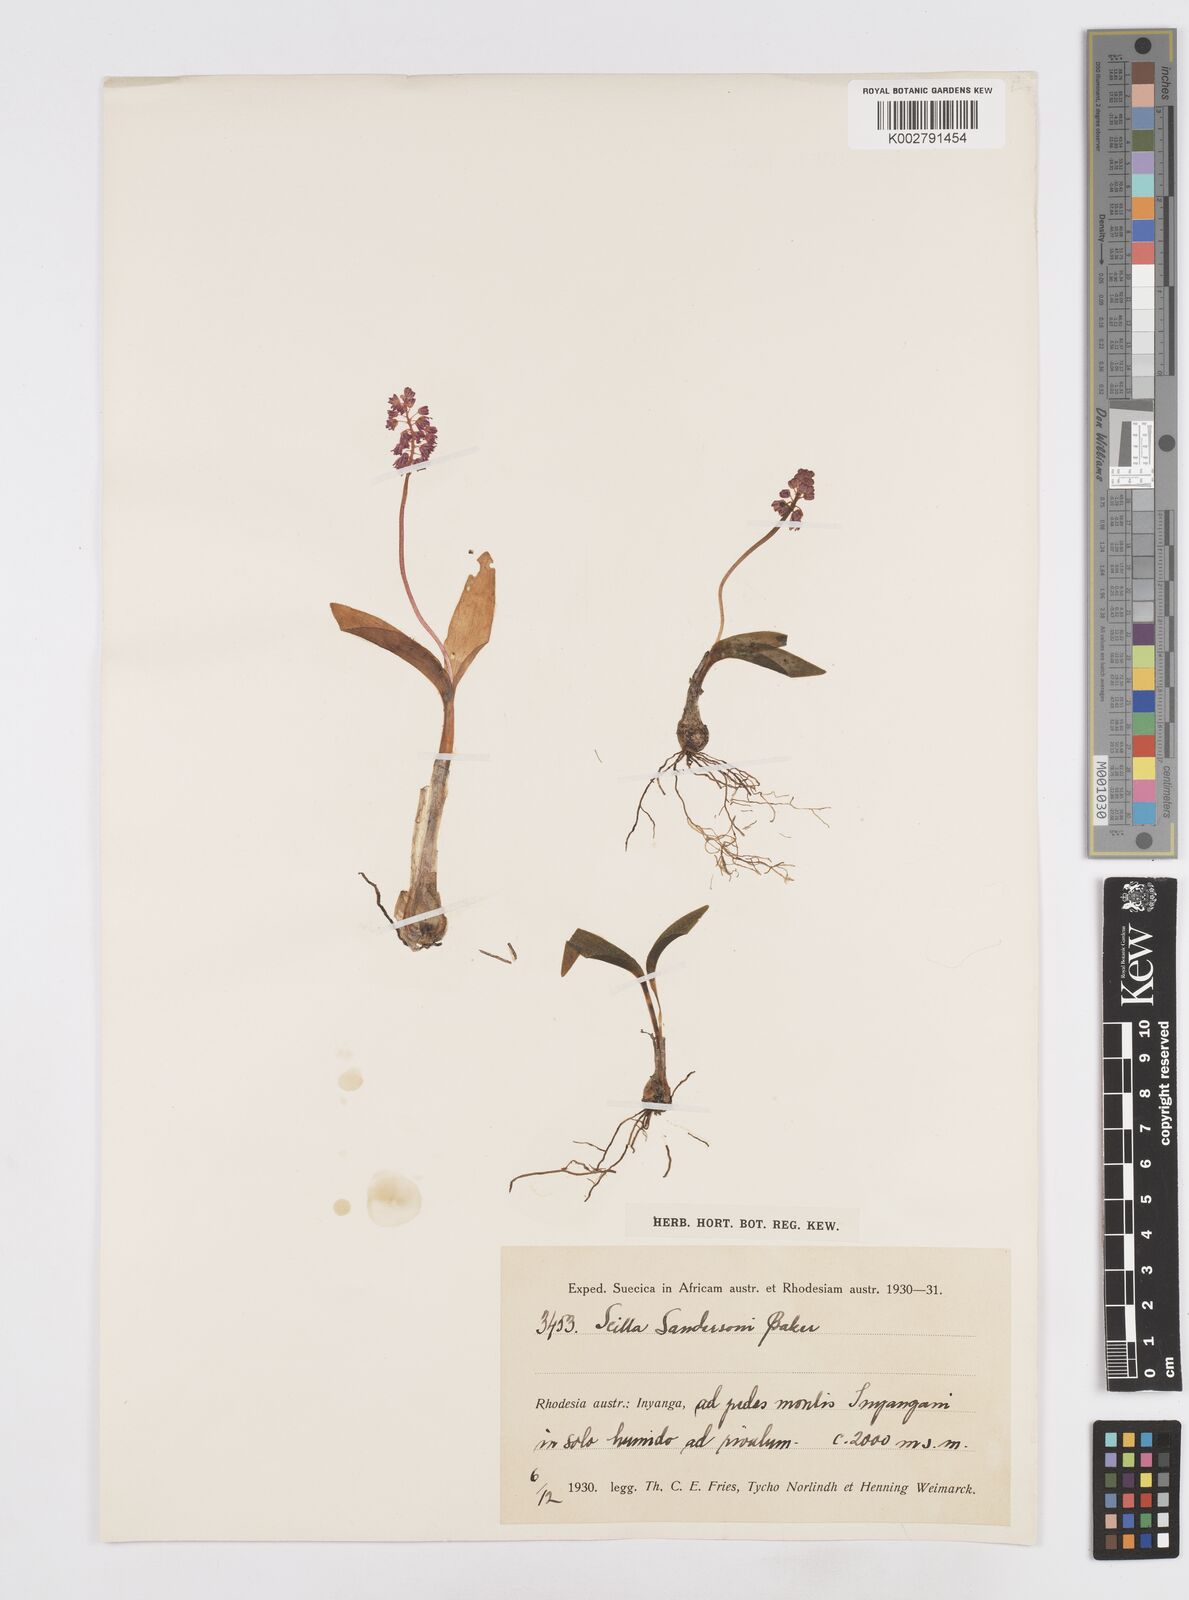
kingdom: Plantae
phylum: Tracheophyta
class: Liliopsida
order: Asparagales
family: Asparagaceae
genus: Ledebouria
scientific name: Ledebouria sandersonii
